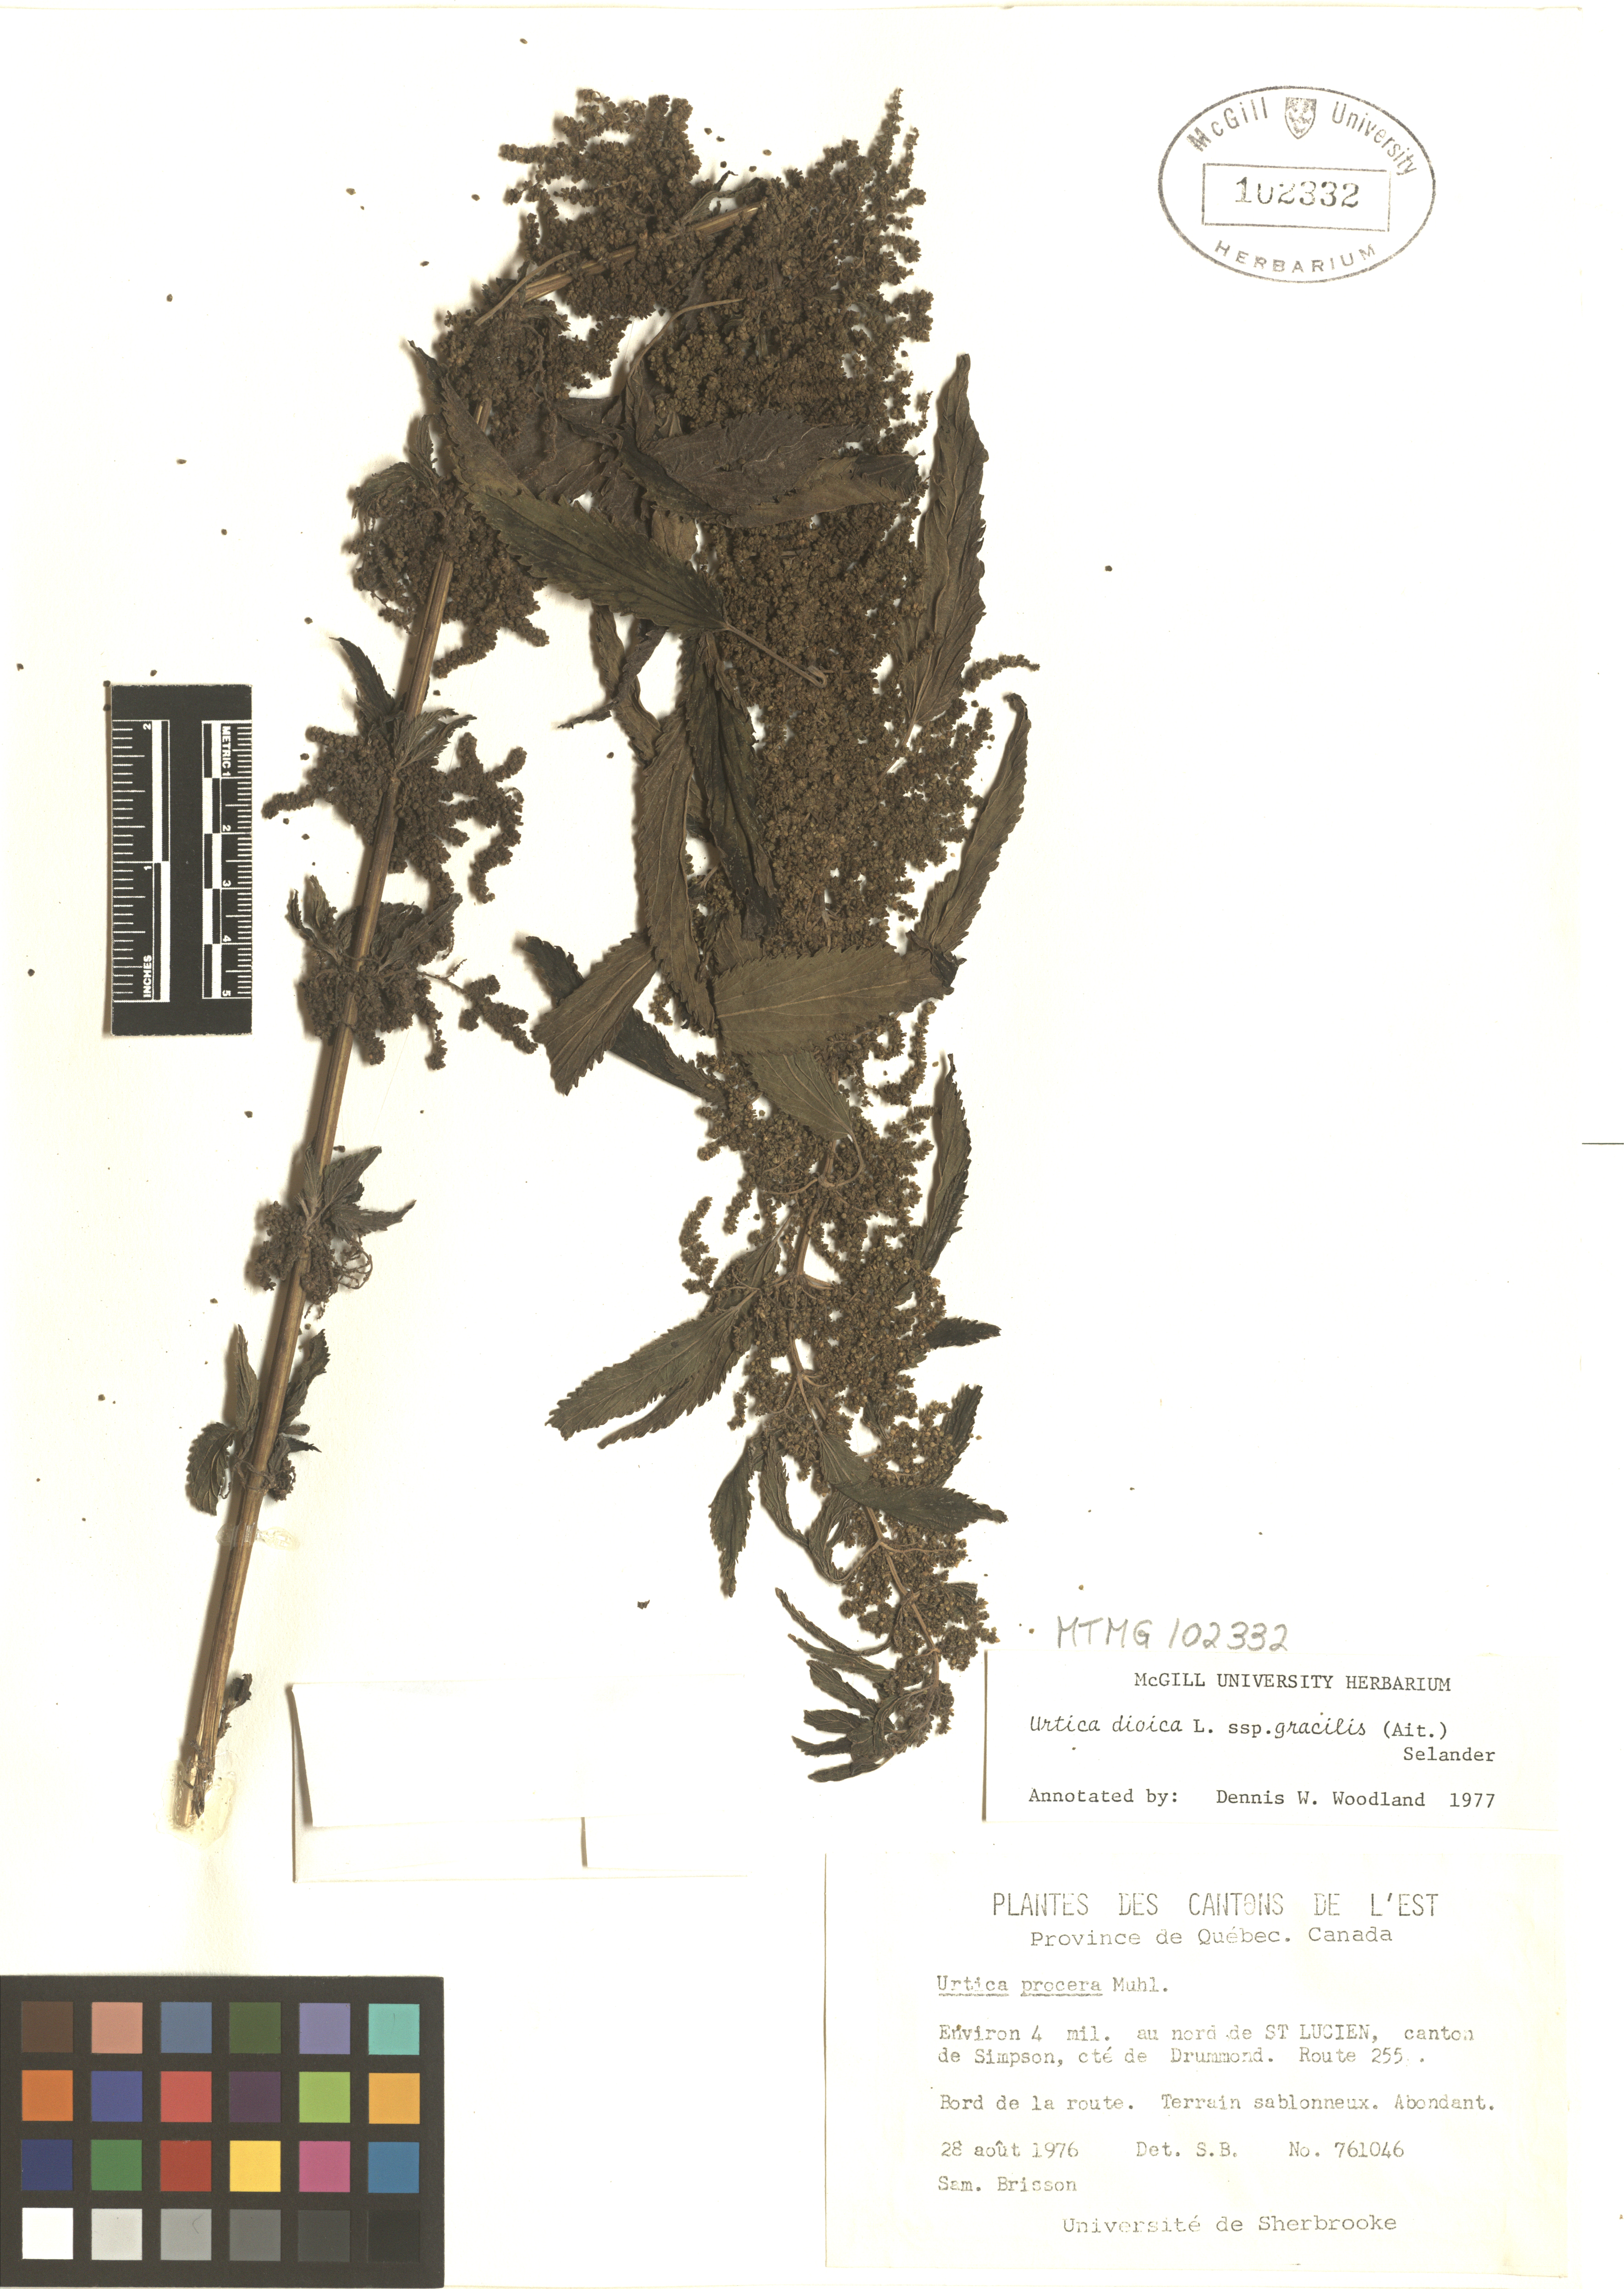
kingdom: Plantae
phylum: Tracheophyta
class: Magnoliopsida
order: Rosales
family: Urticaceae
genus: Urtica
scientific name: Urtica gracilis
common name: Slender stinging nettle
